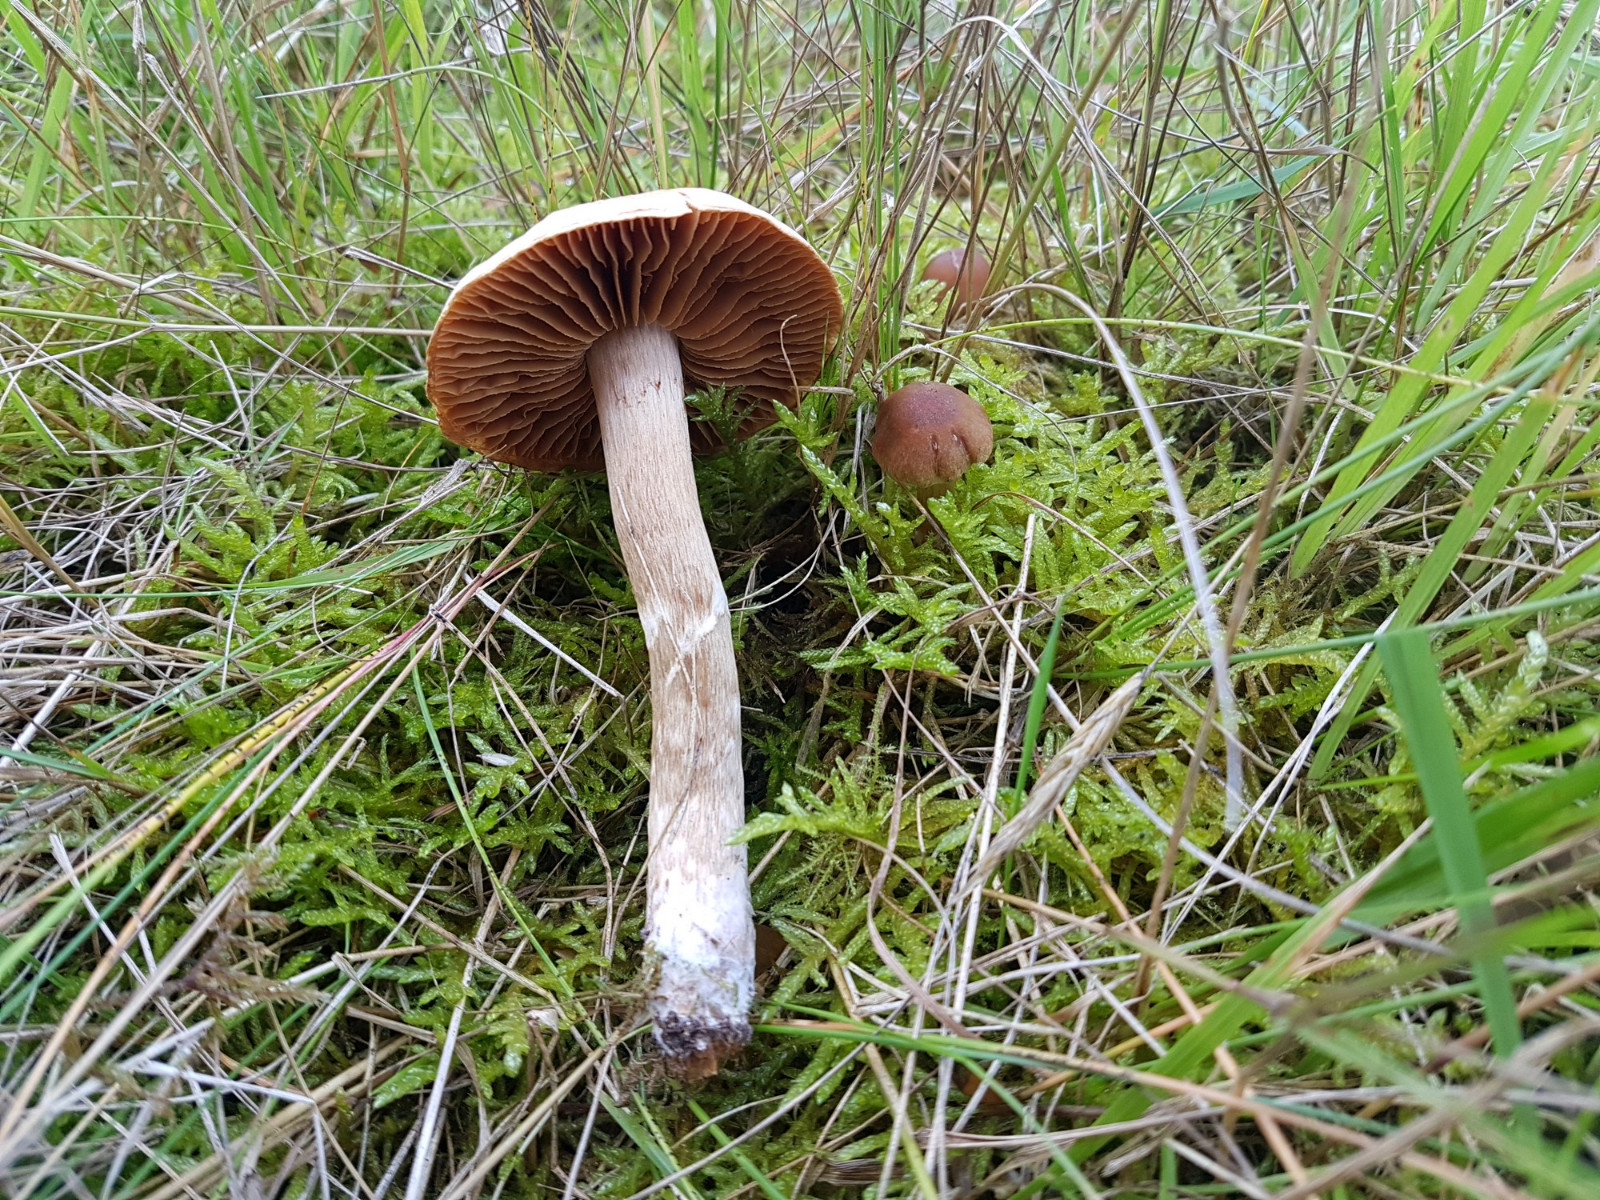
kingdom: Fungi
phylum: Basidiomycota
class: Agaricomycetes
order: Agaricales
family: Cortinariaceae
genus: Cortinarius
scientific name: Cortinarius
